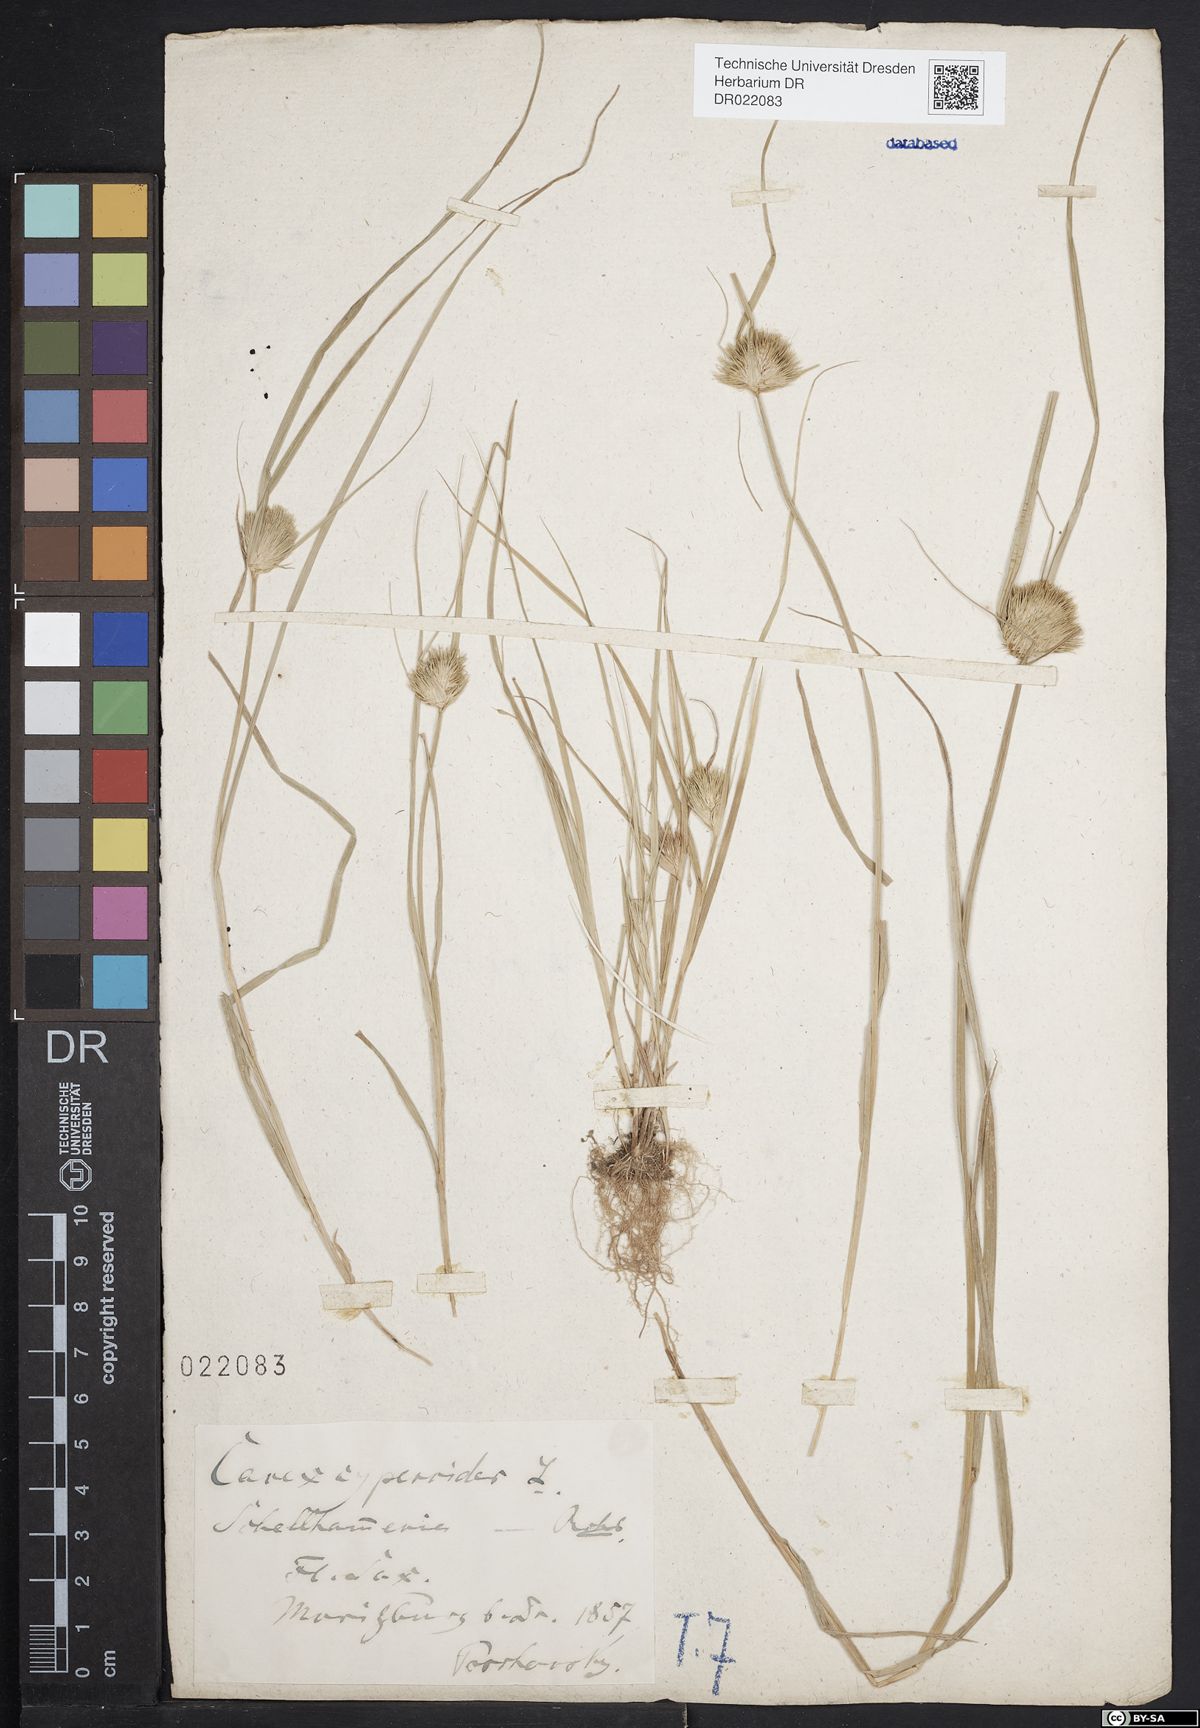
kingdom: Plantae
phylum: Tracheophyta
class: Liliopsida
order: Poales
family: Cyperaceae
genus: Carex
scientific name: Carex bohemica
